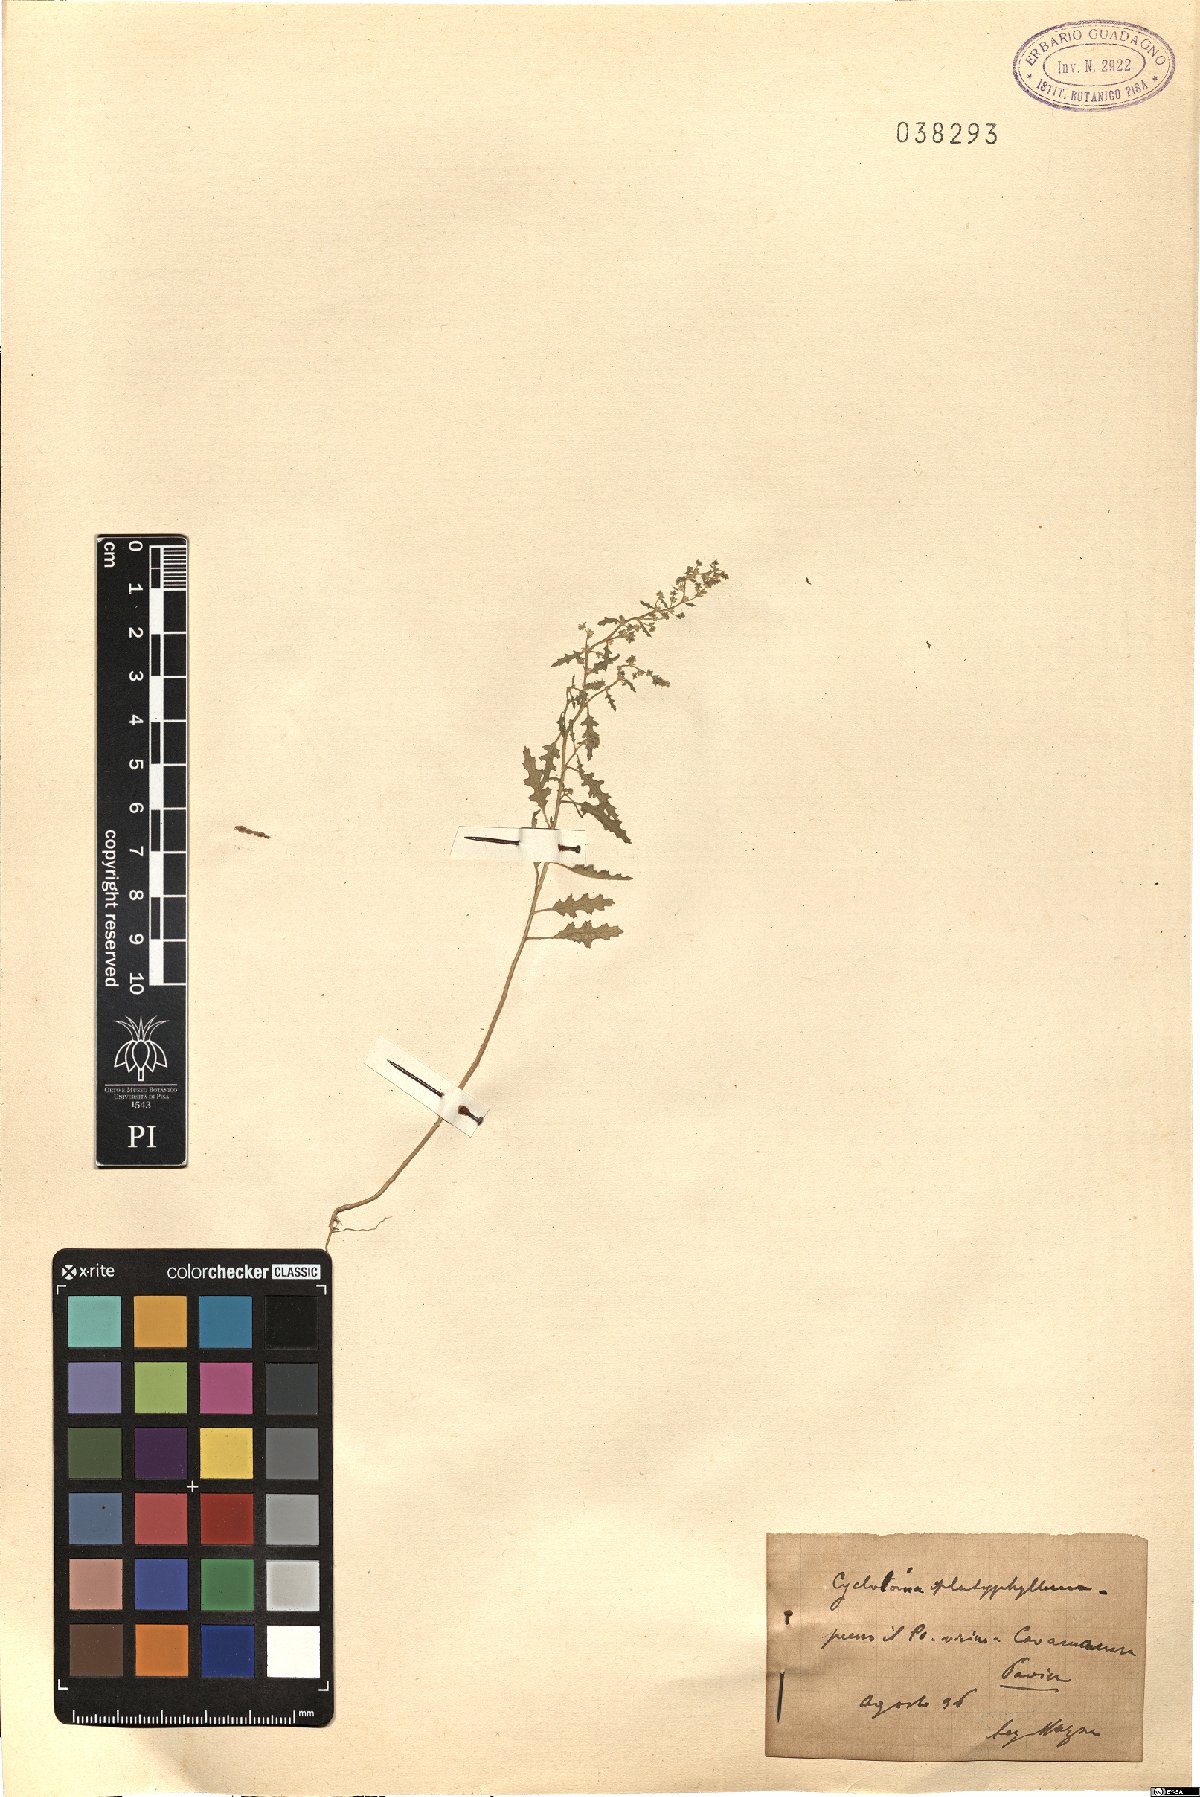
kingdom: Plantae
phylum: Tracheophyta
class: Magnoliopsida
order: Caryophyllales
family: Amaranthaceae
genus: Dysphania
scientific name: Dysphania atriplicifolia
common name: Plains tumbleweed
